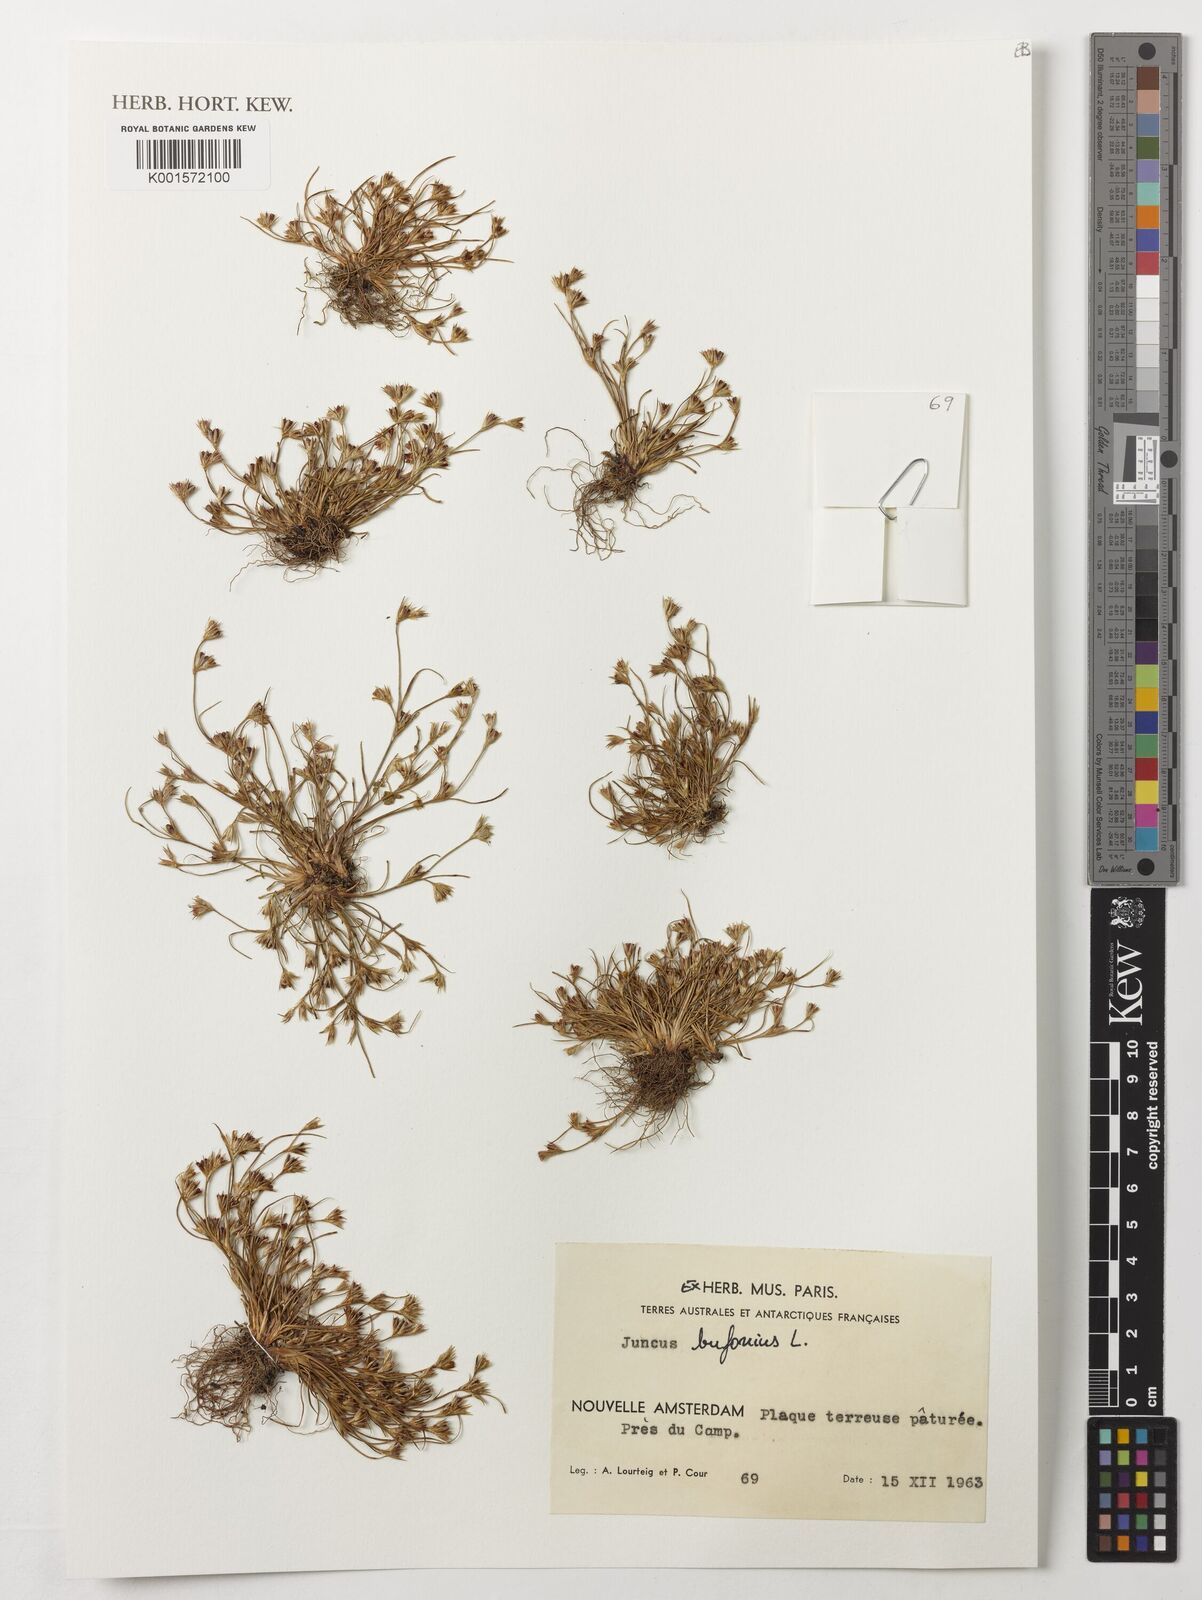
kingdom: Plantae
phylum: Tracheophyta
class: Liliopsida
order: Poales
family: Juncaceae
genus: Juncus
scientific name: Juncus bufonius
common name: Toad rush
